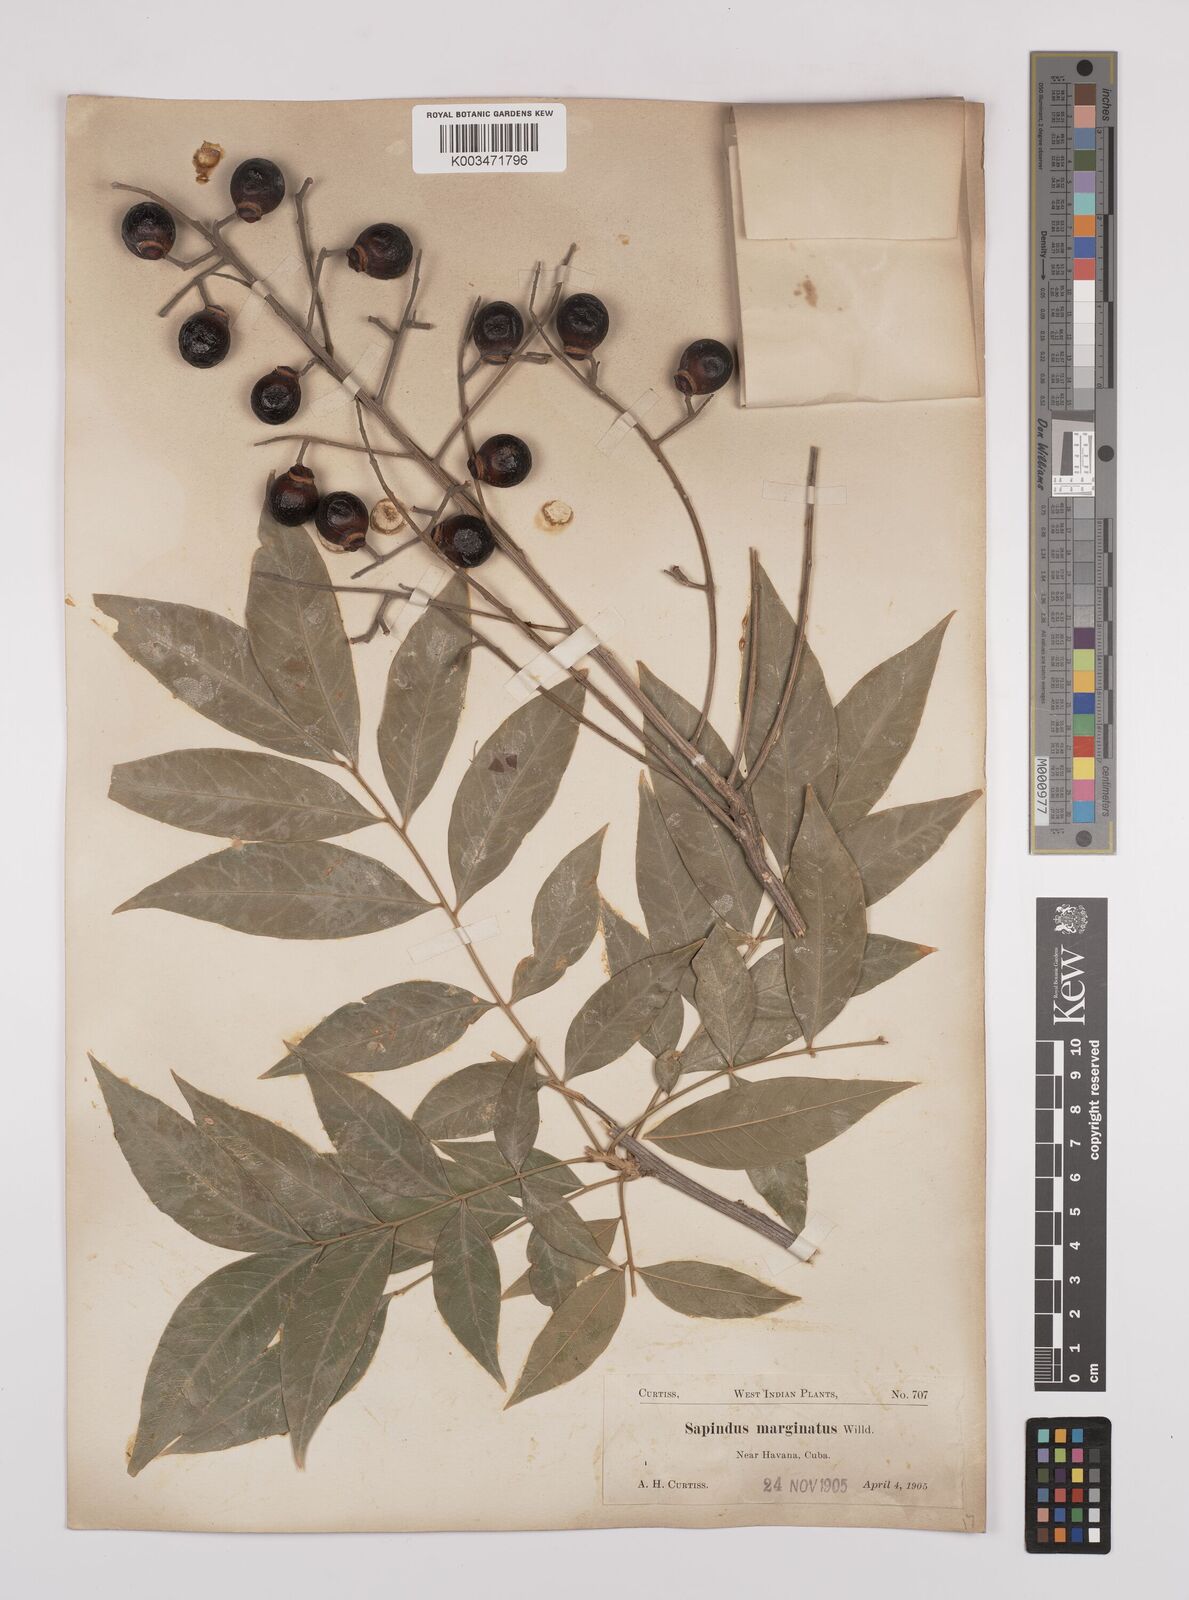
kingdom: Plantae
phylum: Tracheophyta
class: Magnoliopsida
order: Sapindales
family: Sapindaceae
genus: Sapindus
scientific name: Sapindus saponaria
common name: Wingleaf soapberry
